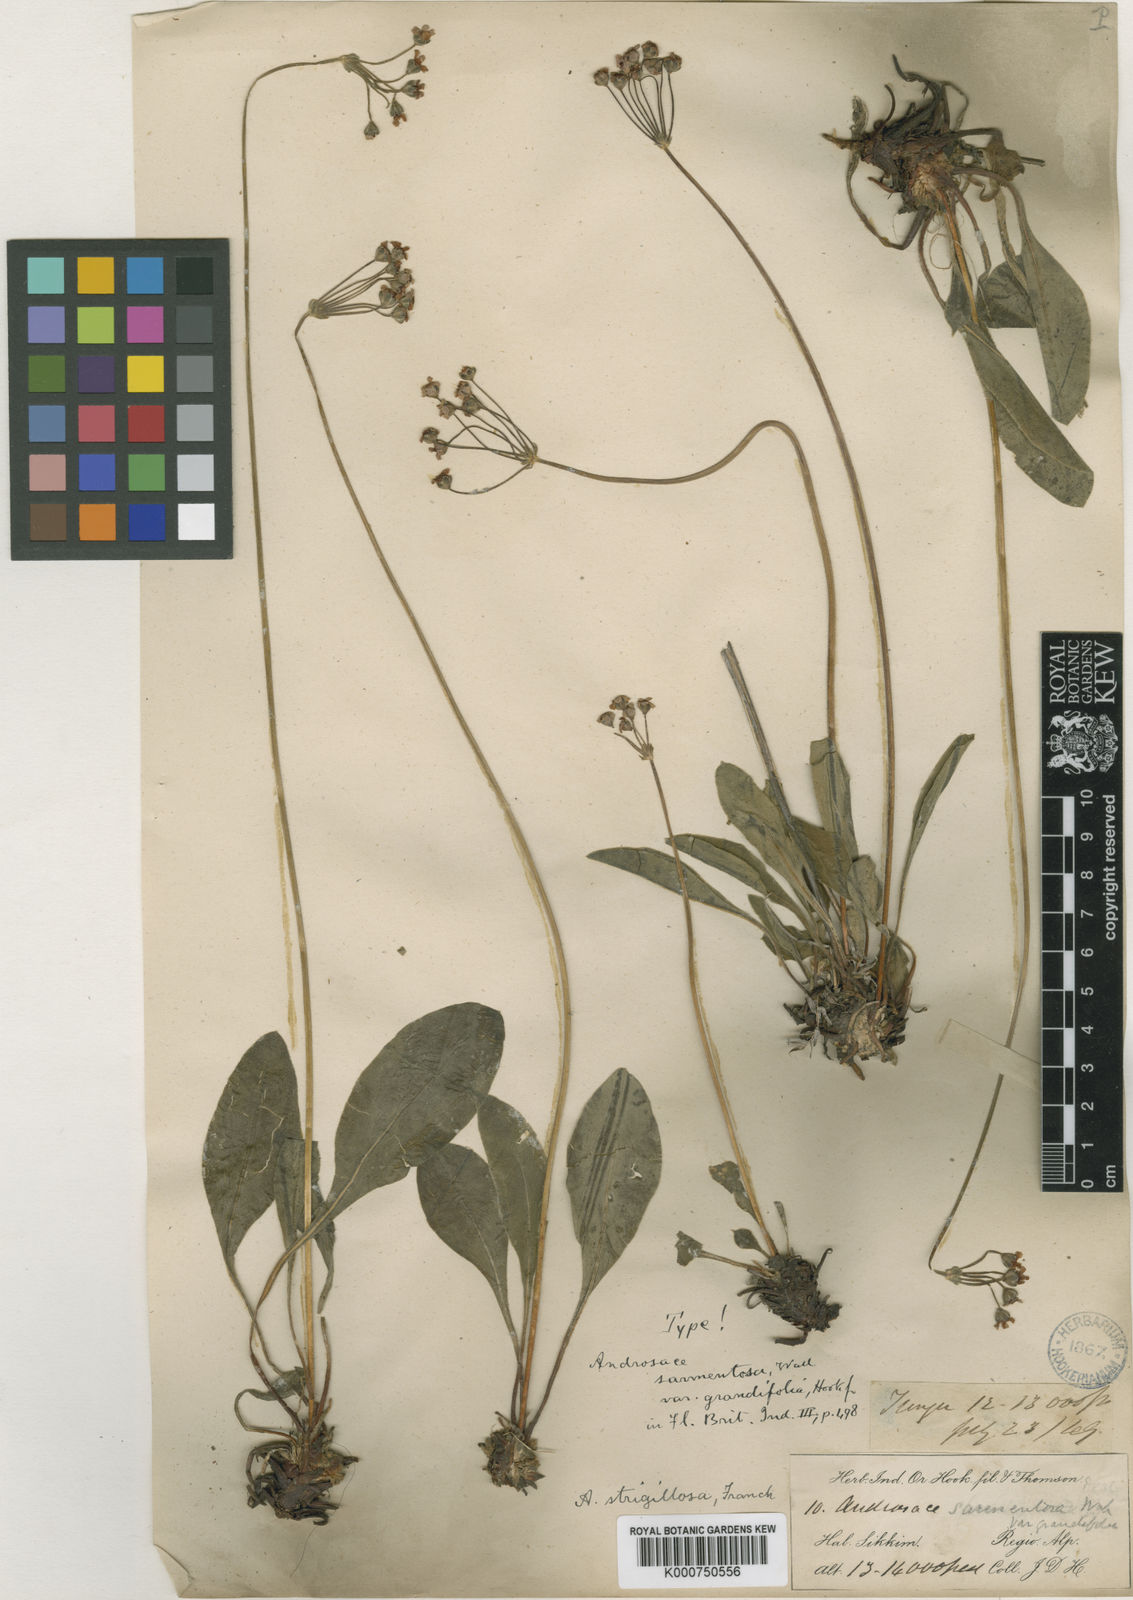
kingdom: Plantae
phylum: Tracheophyta
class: Magnoliopsida
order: Ericales
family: Primulaceae
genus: Androsace
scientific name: Androsace strigillosa
